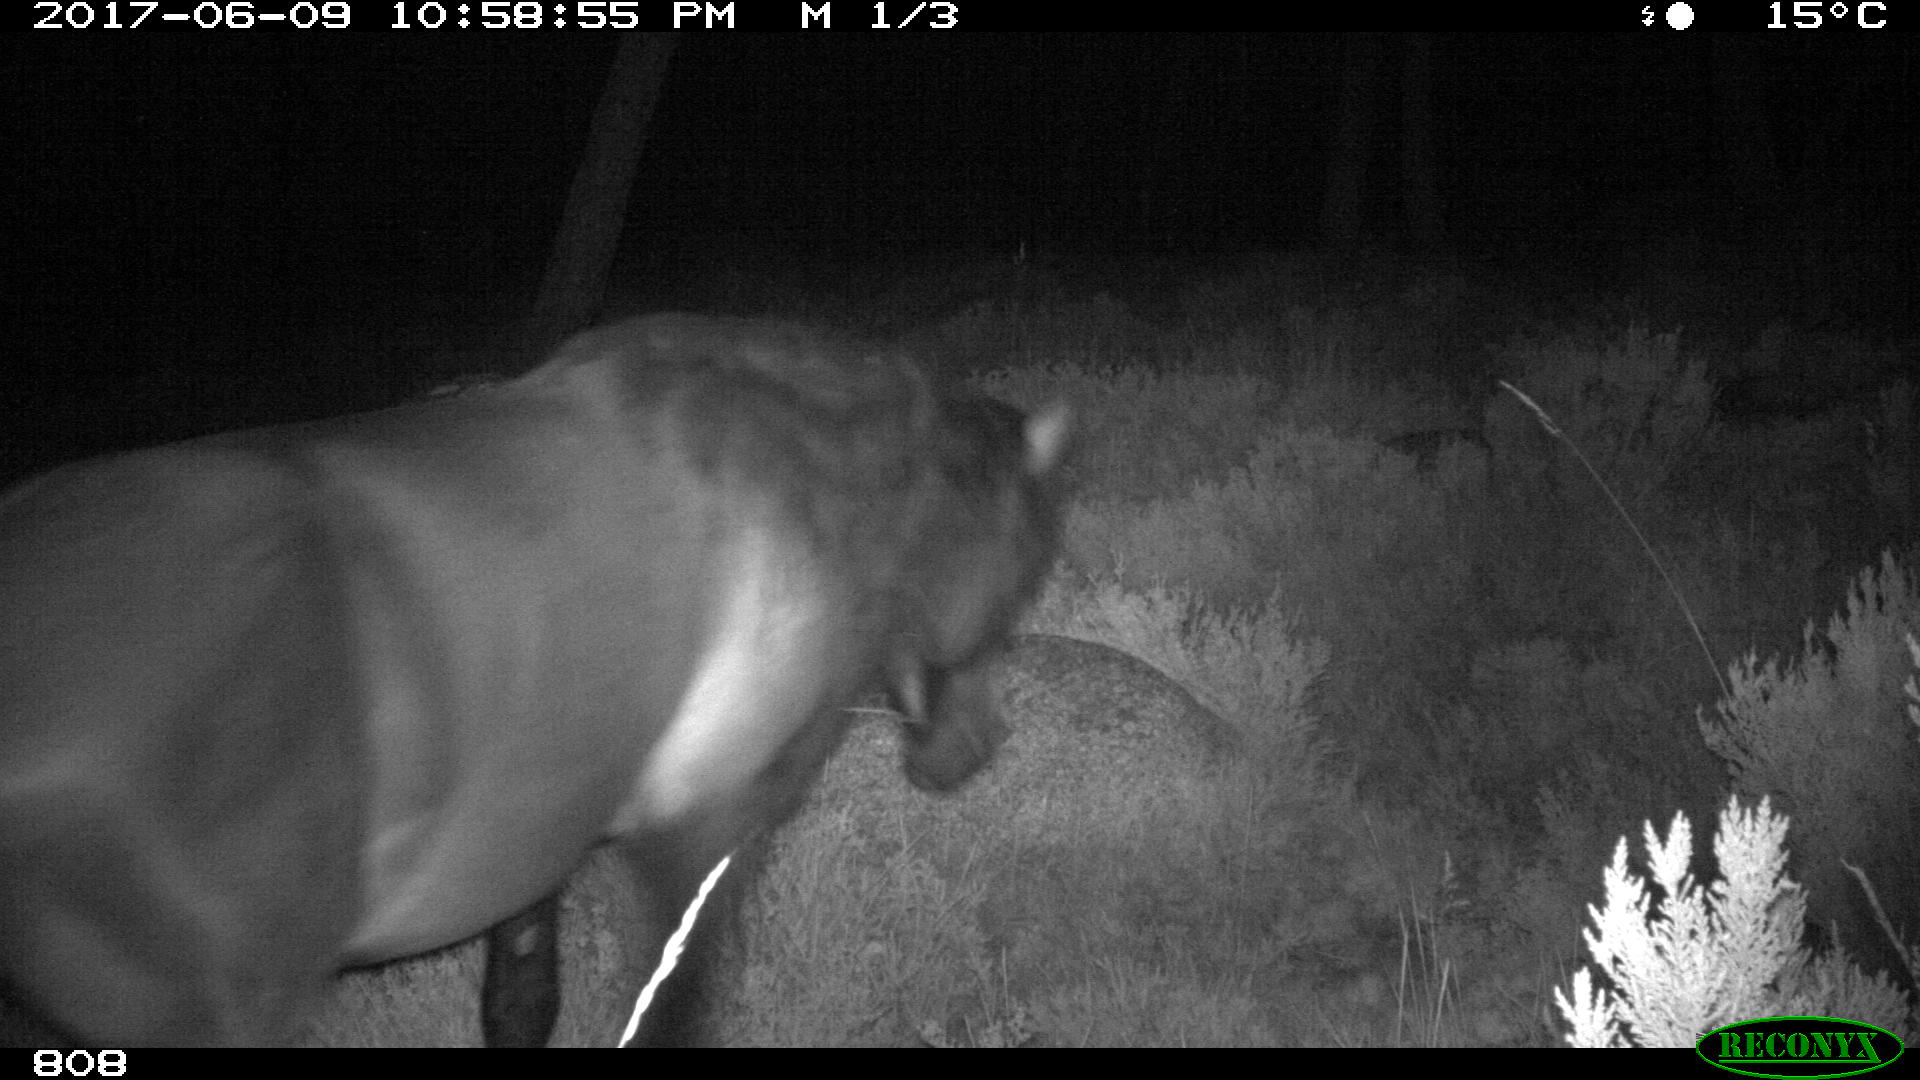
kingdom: Animalia
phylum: Chordata
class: Mammalia
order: Perissodactyla
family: Equidae
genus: Equus
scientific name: Equus caballus
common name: Horse
